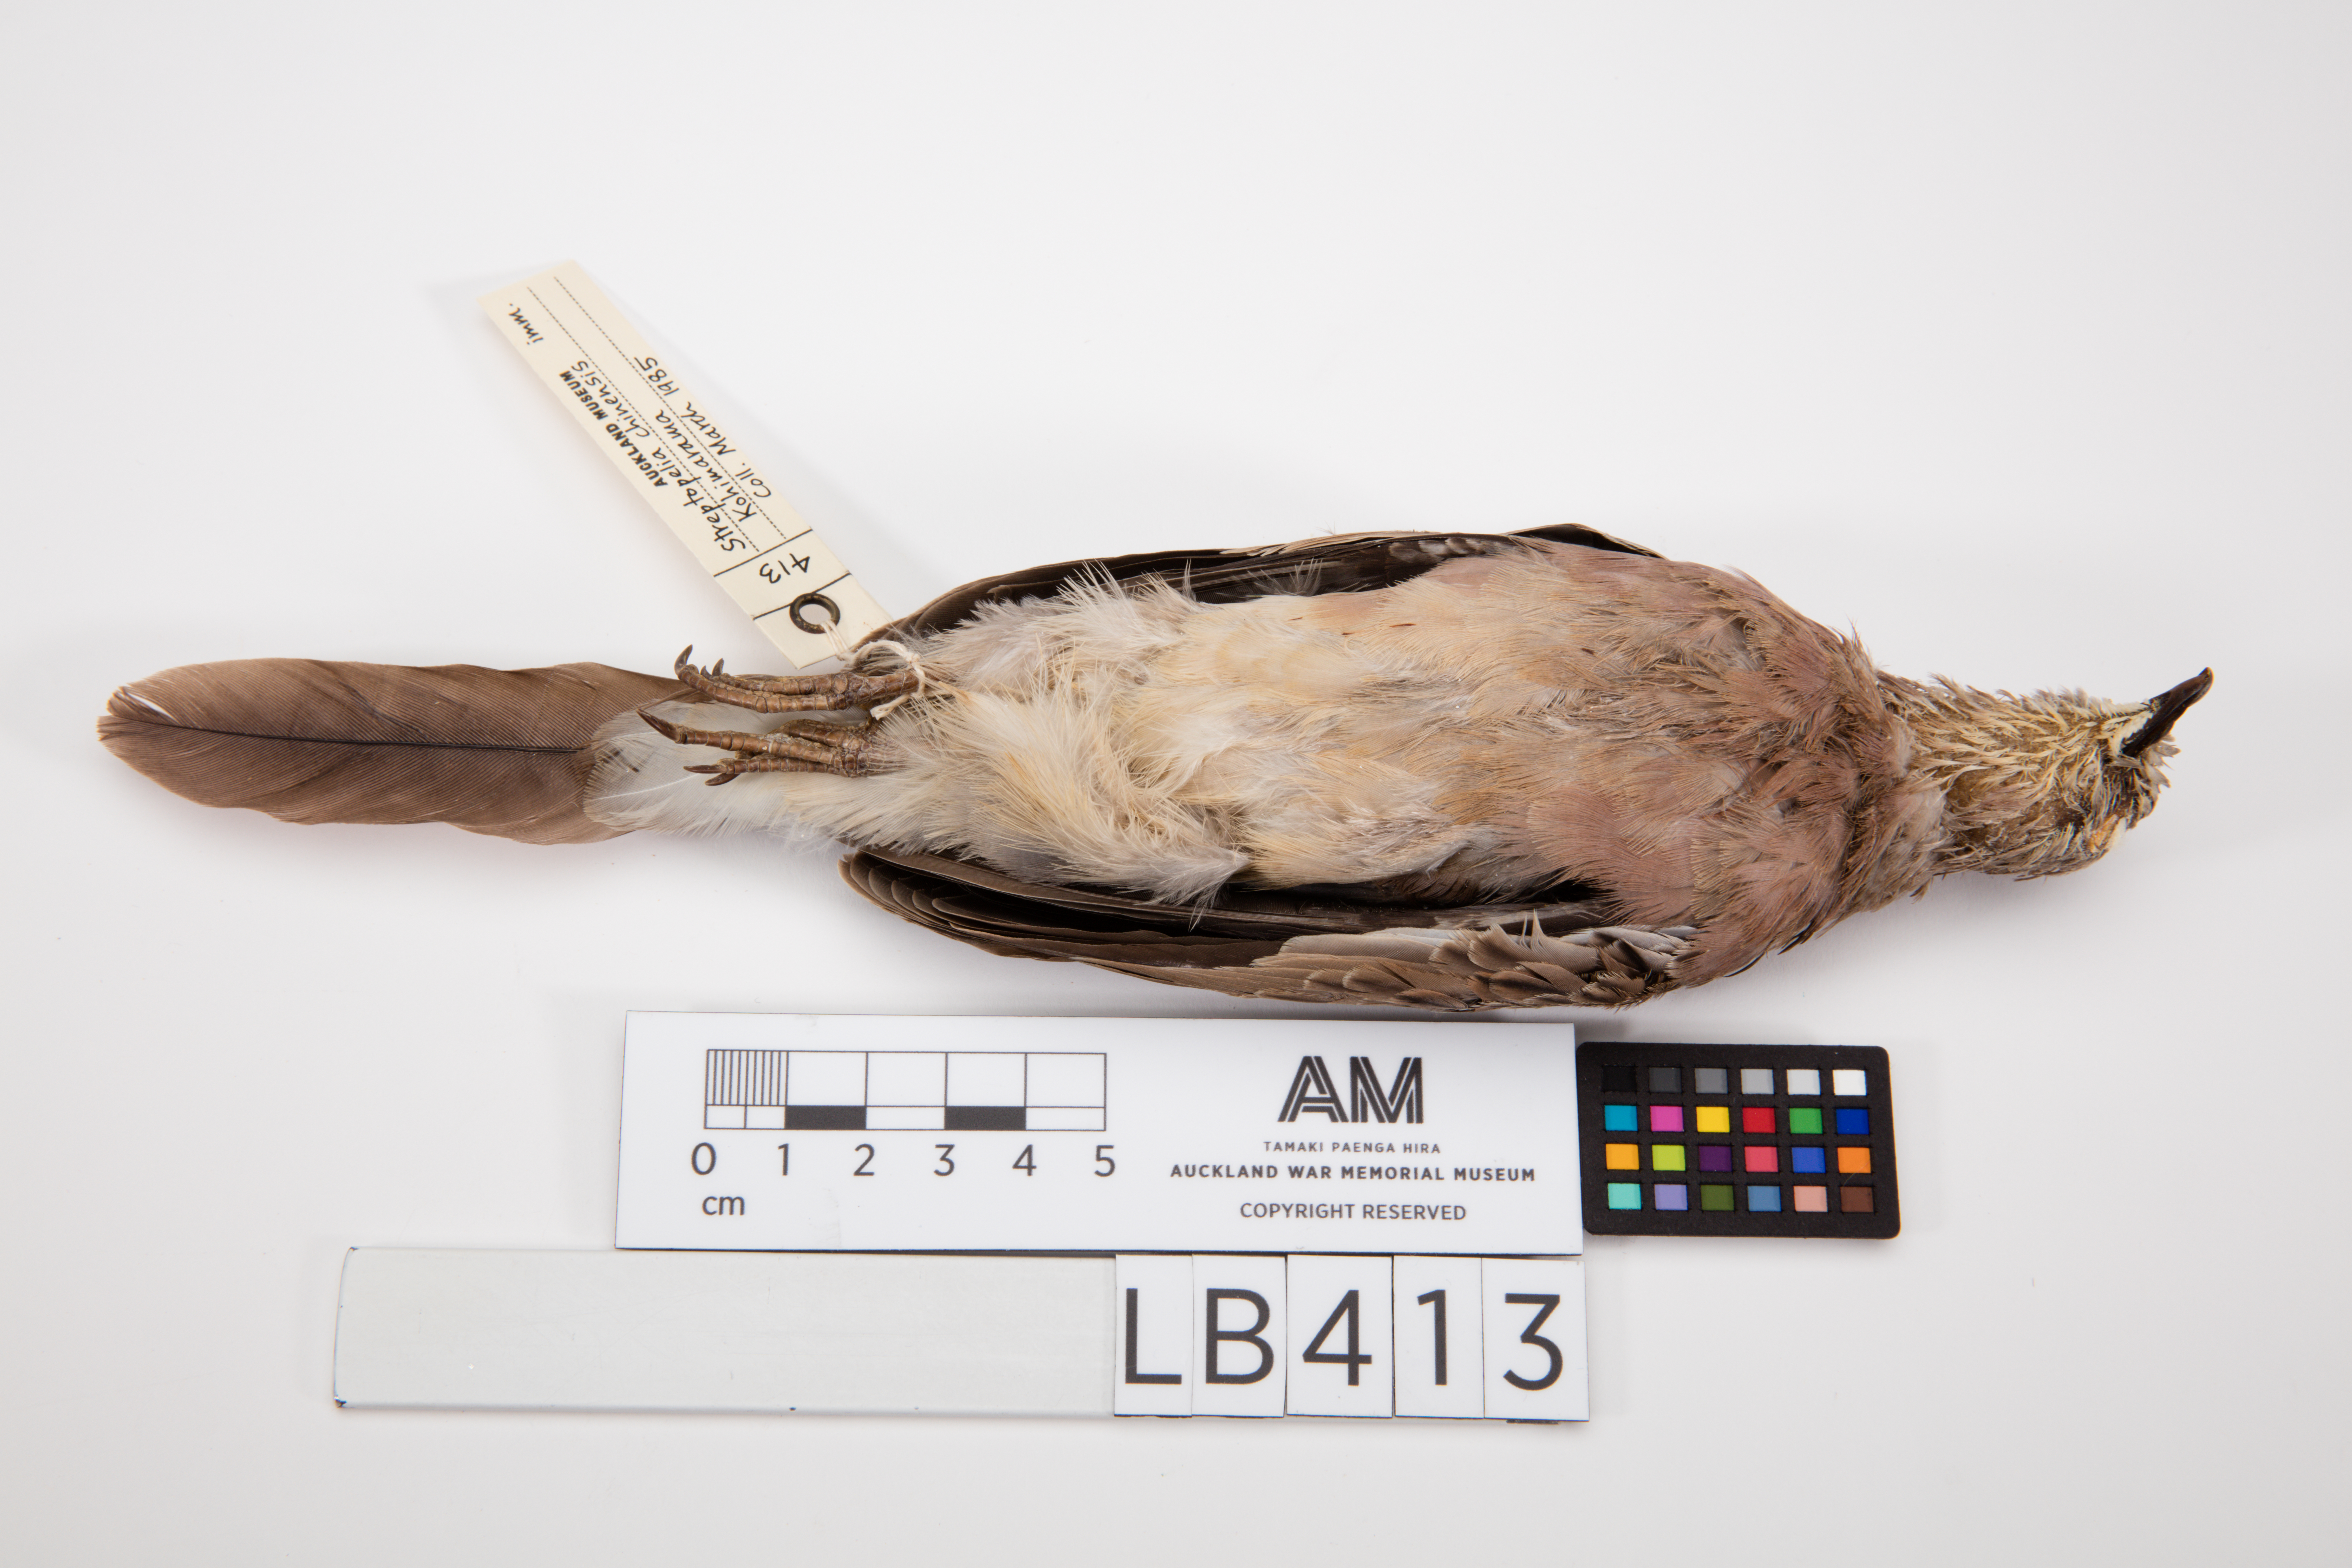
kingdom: Animalia
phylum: Chordata
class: Aves
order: Columbiformes
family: Columbidae
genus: Spilopelia
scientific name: Spilopelia chinensis
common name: Spotted dove
